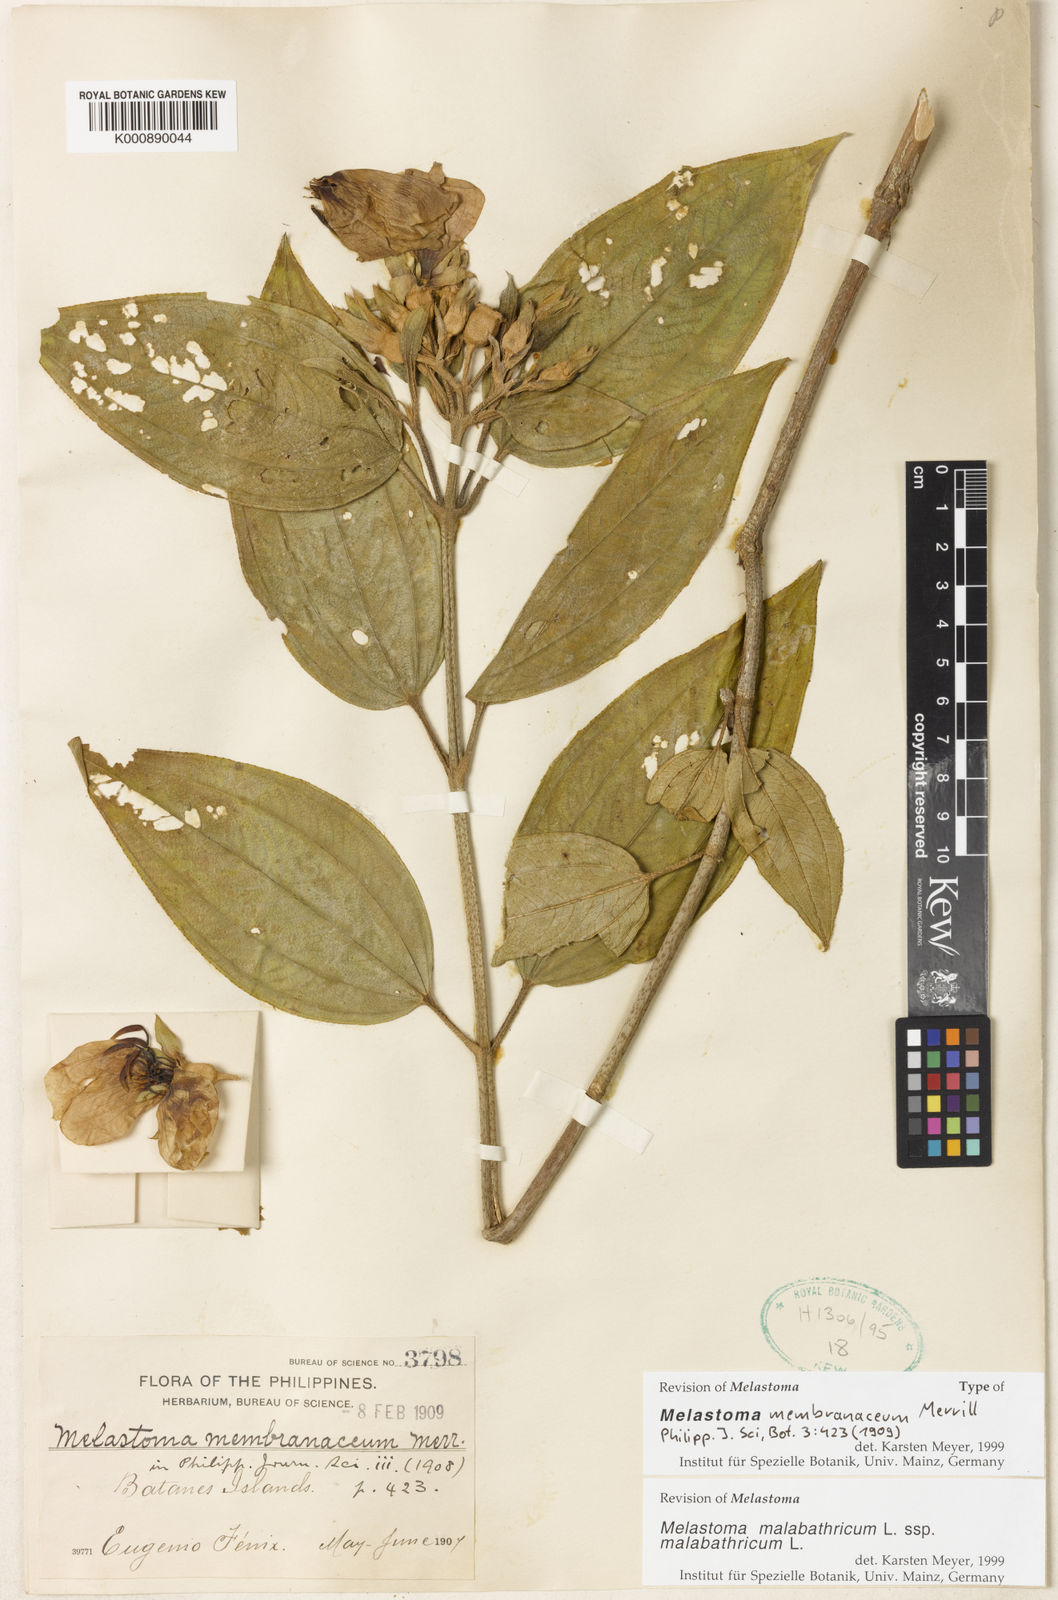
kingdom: Plantae
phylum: Tracheophyta
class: Magnoliopsida
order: Myrtales
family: Melastomataceae
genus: Melastoma
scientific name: Melastoma malabathricum
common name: Indian-rhododendron
